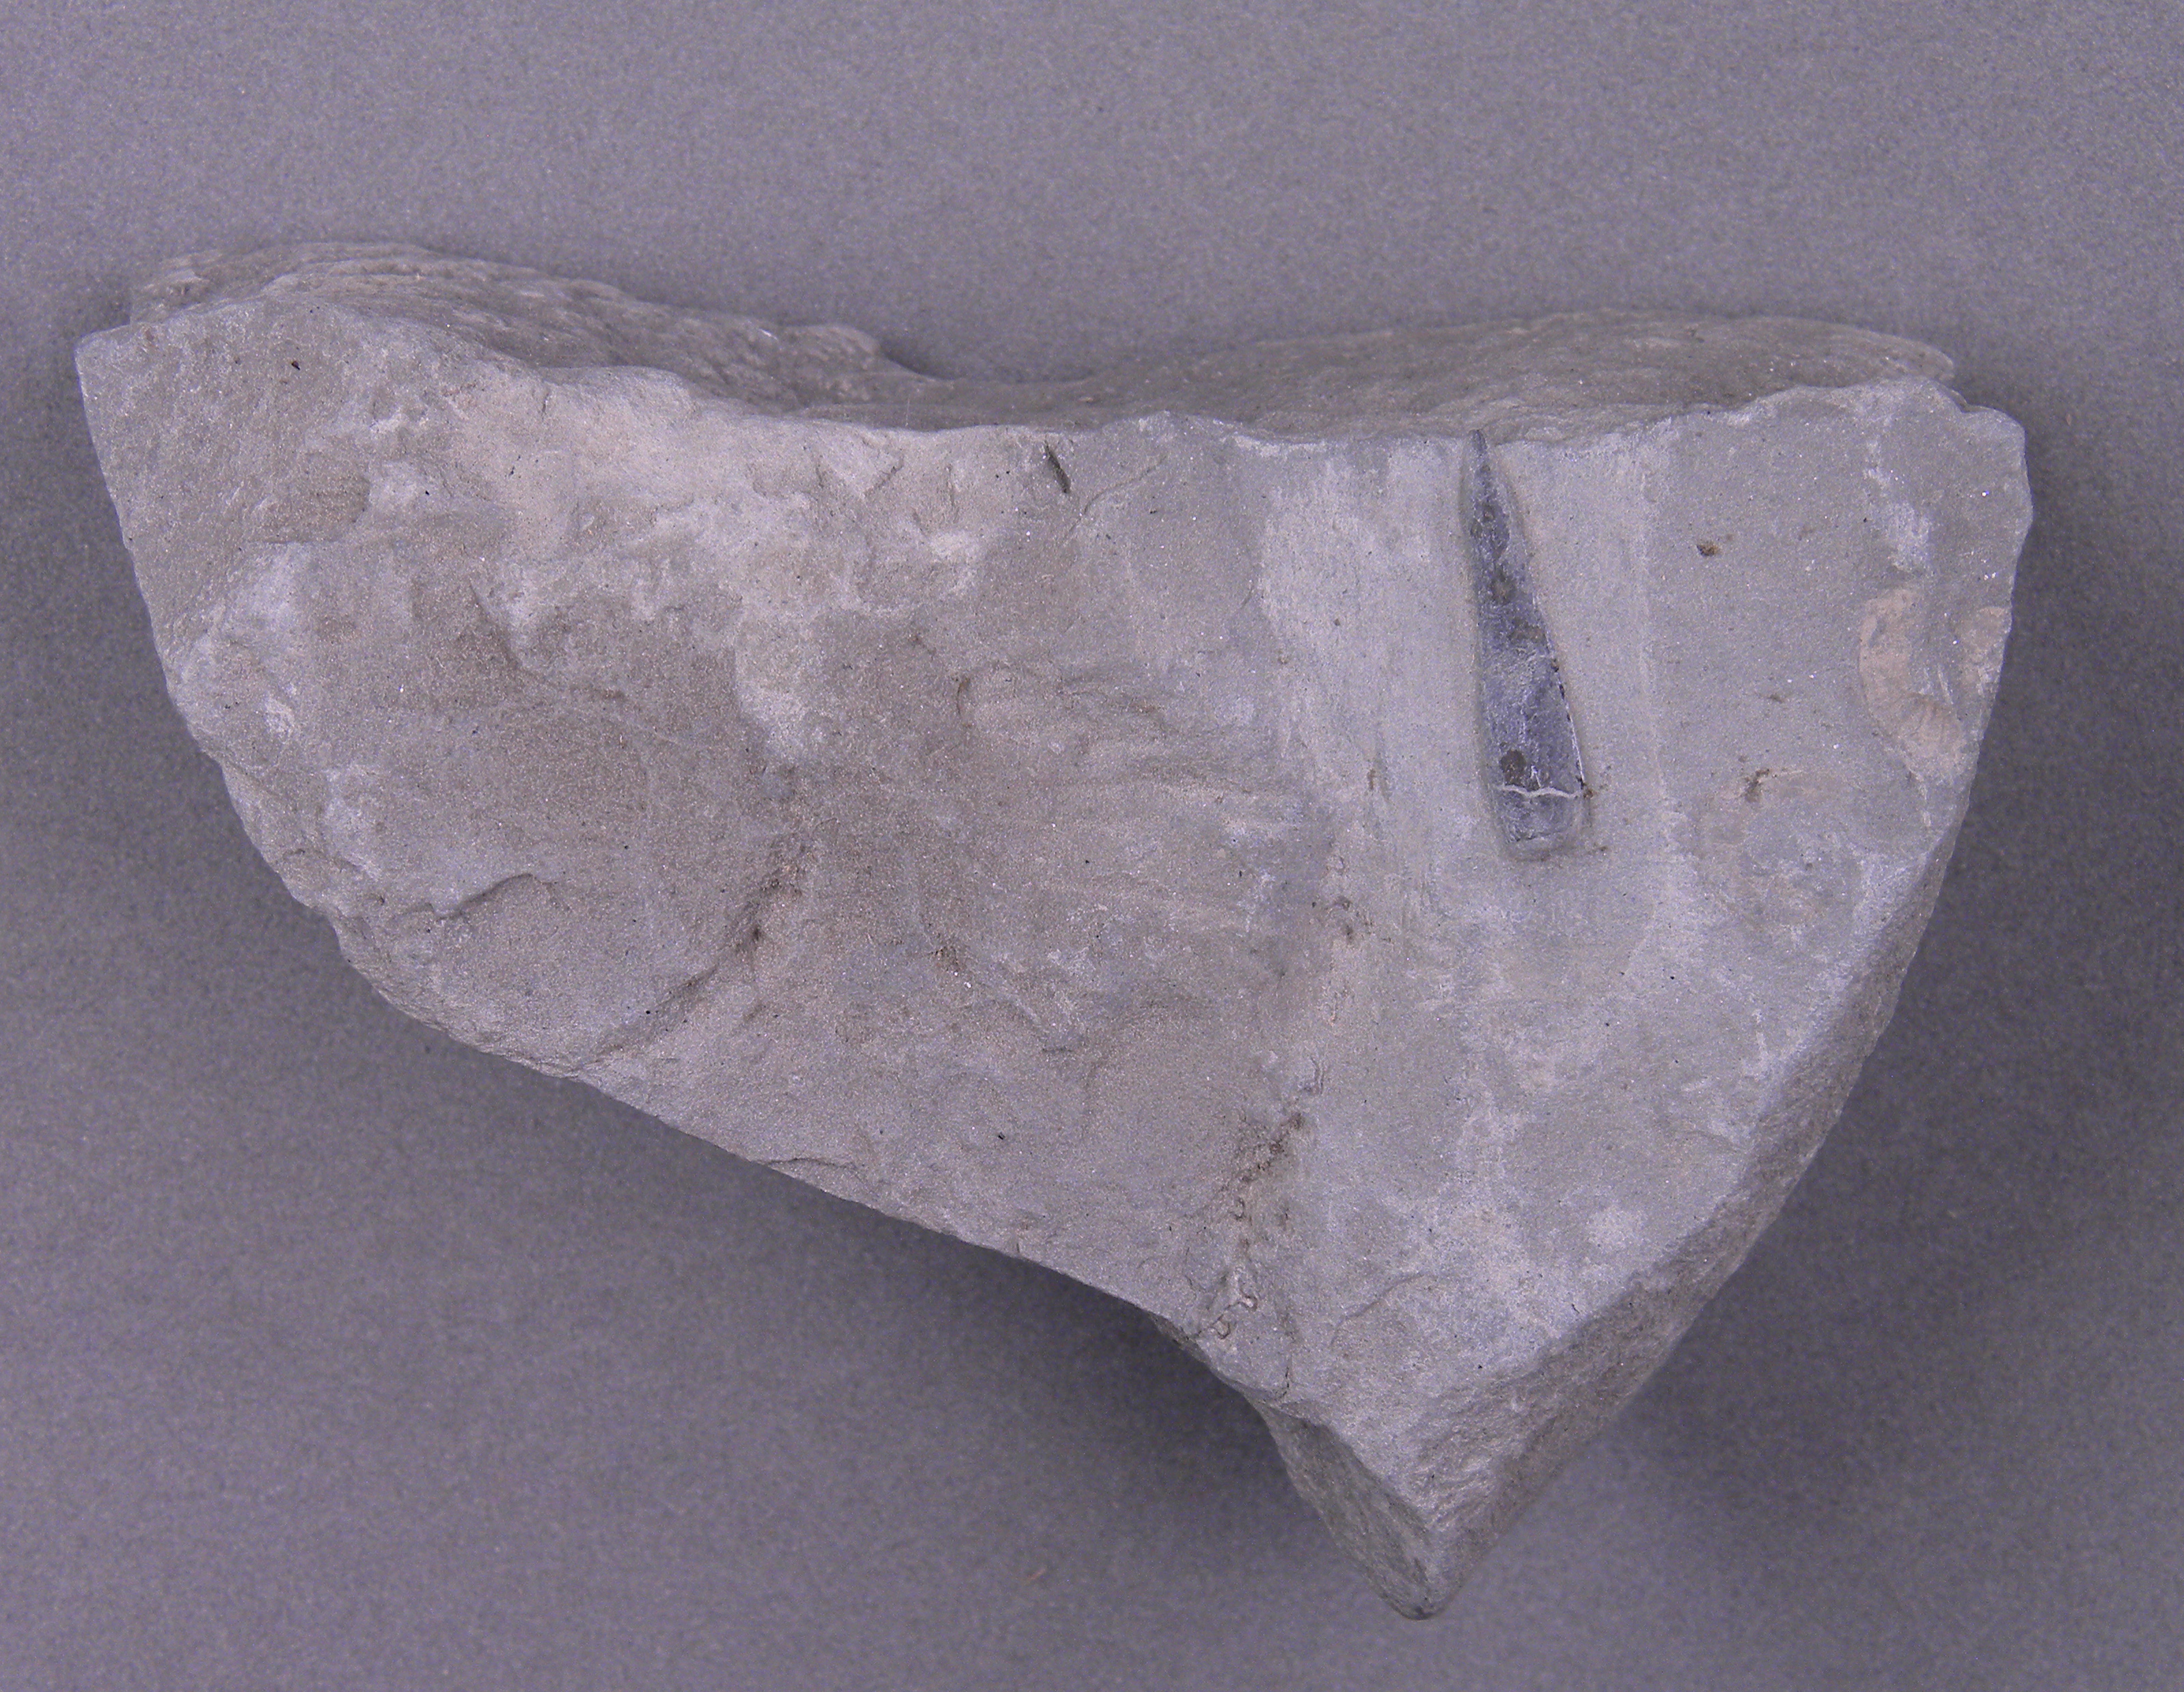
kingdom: Animalia
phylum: Mollusca
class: Cephalopoda
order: Belemnitida
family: Passaloteuthidae
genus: Passaloteuthis
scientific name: Passaloteuthis bruguieriana
